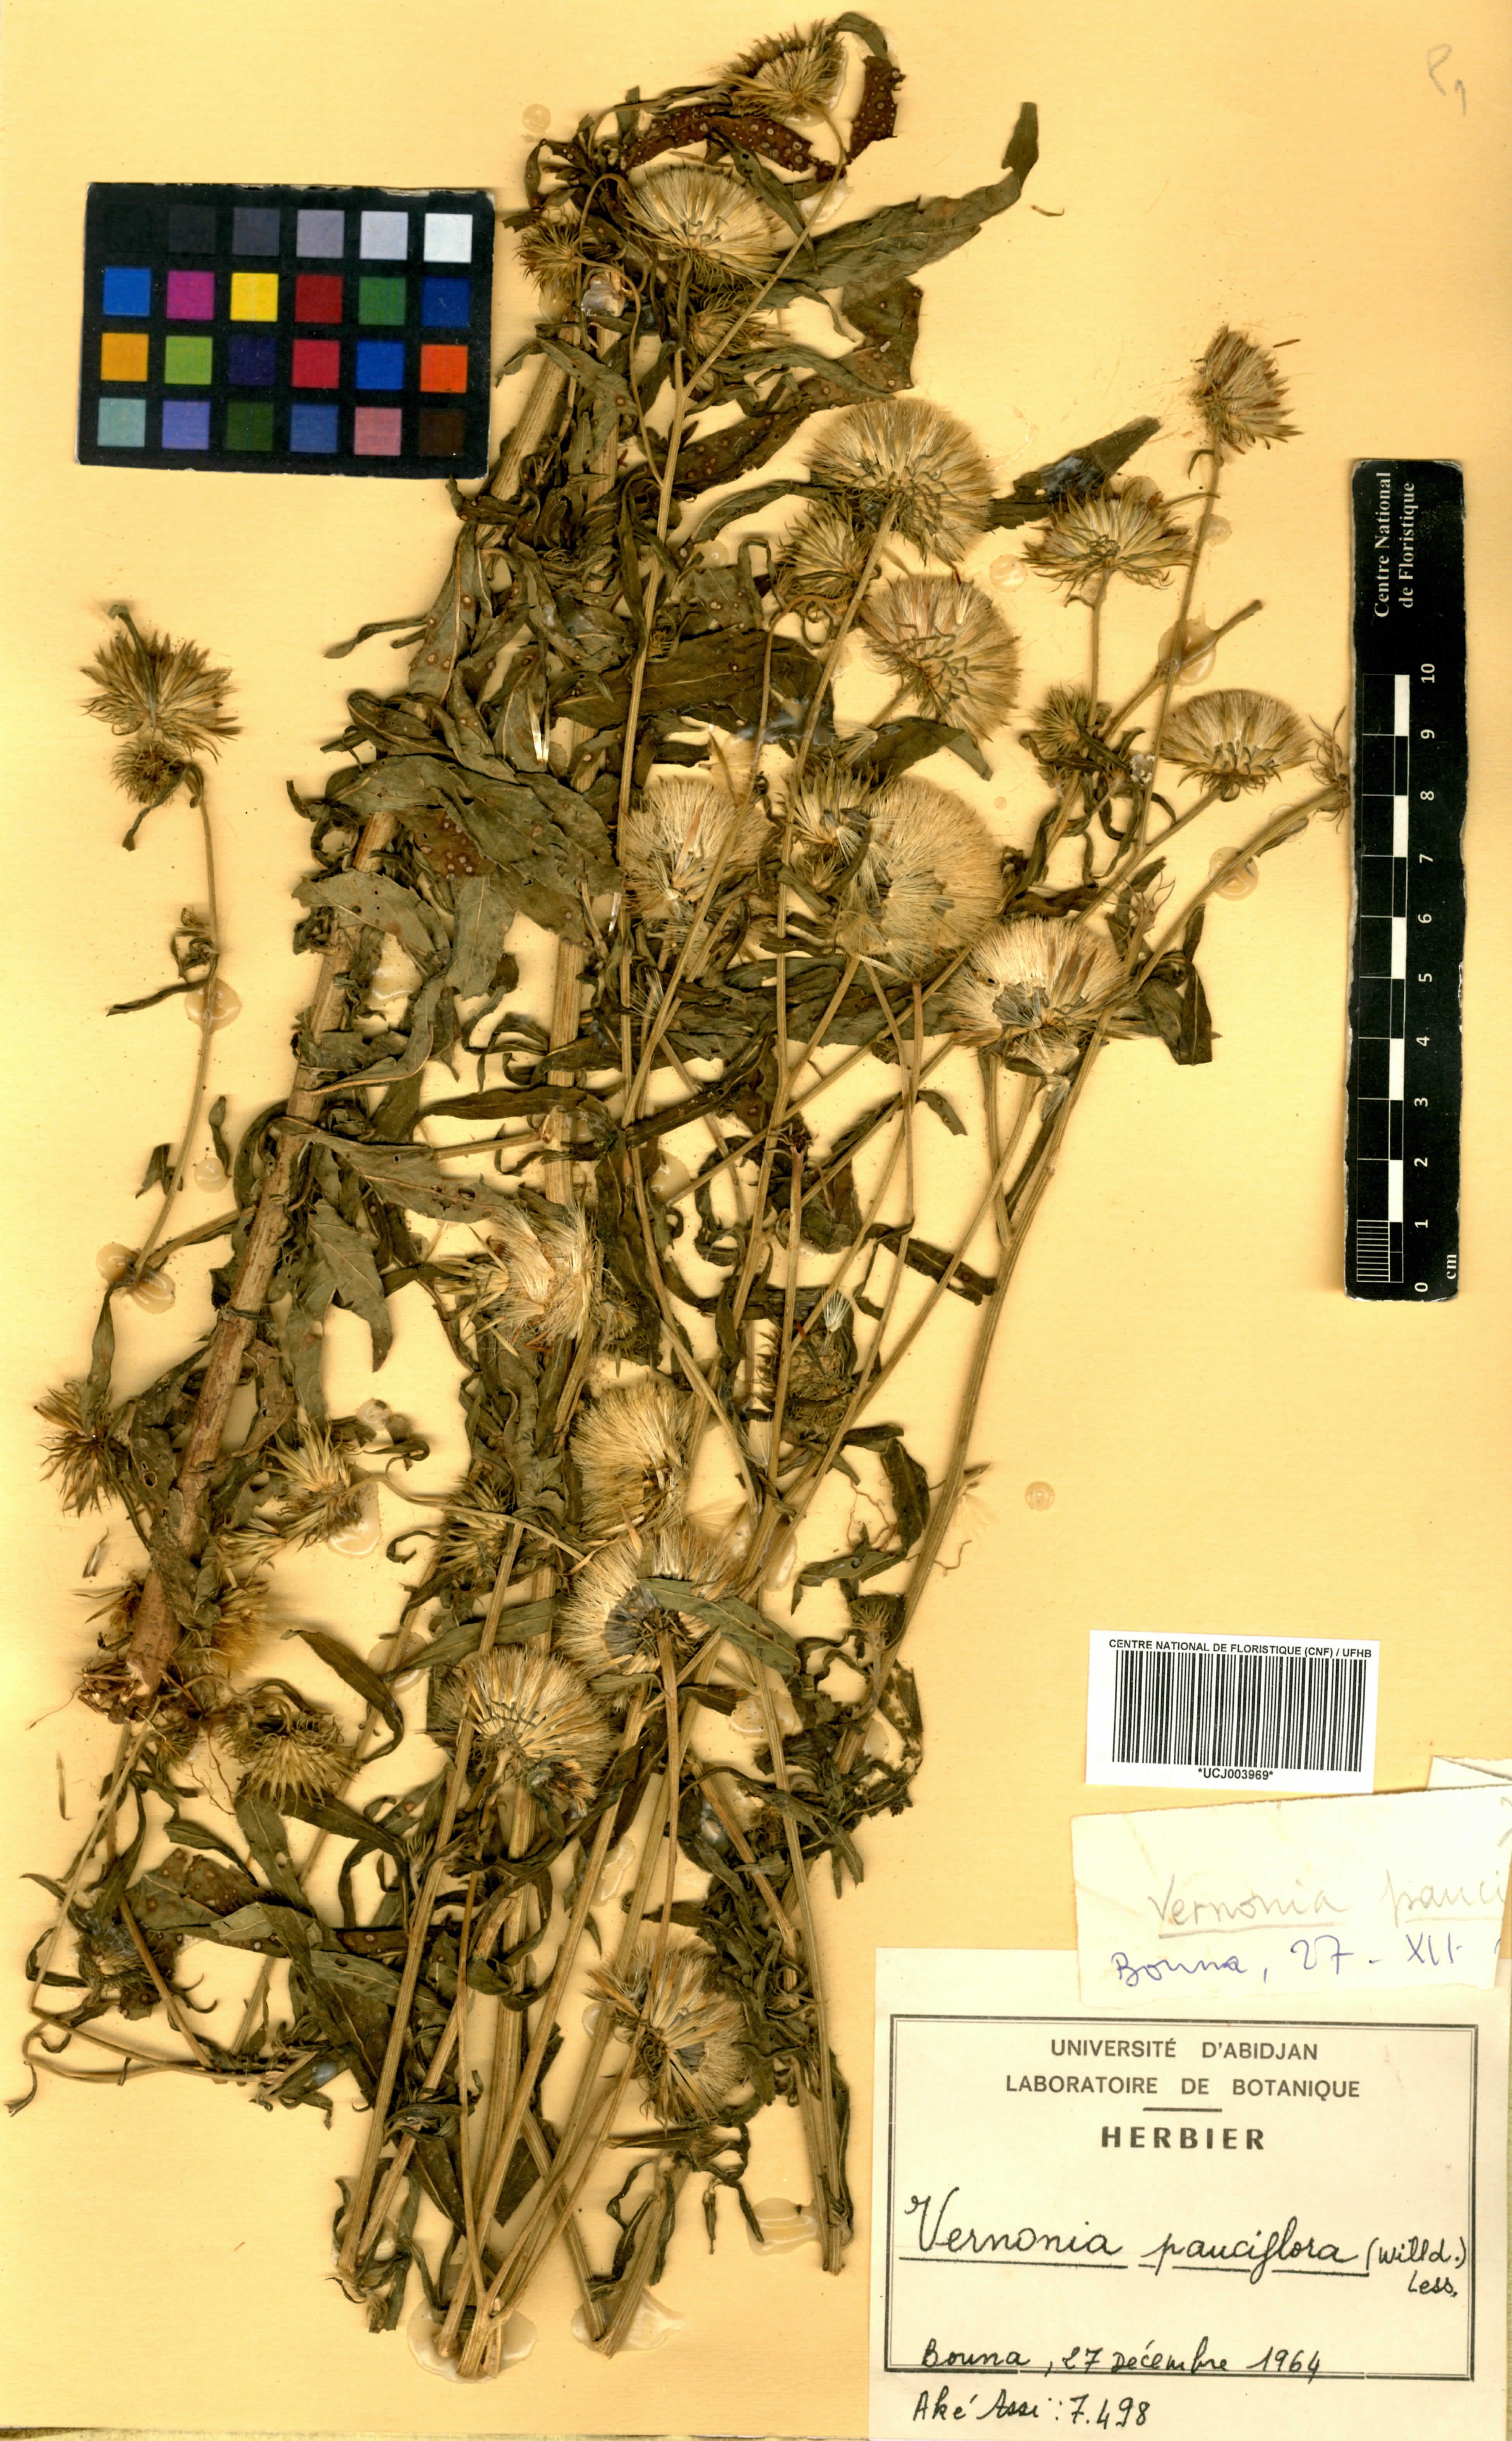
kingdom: Plantae
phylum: Tracheophyta
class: Magnoliopsida
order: Asterales
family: Asteraceae
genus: Vernonia
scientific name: Vernonia galamensis
